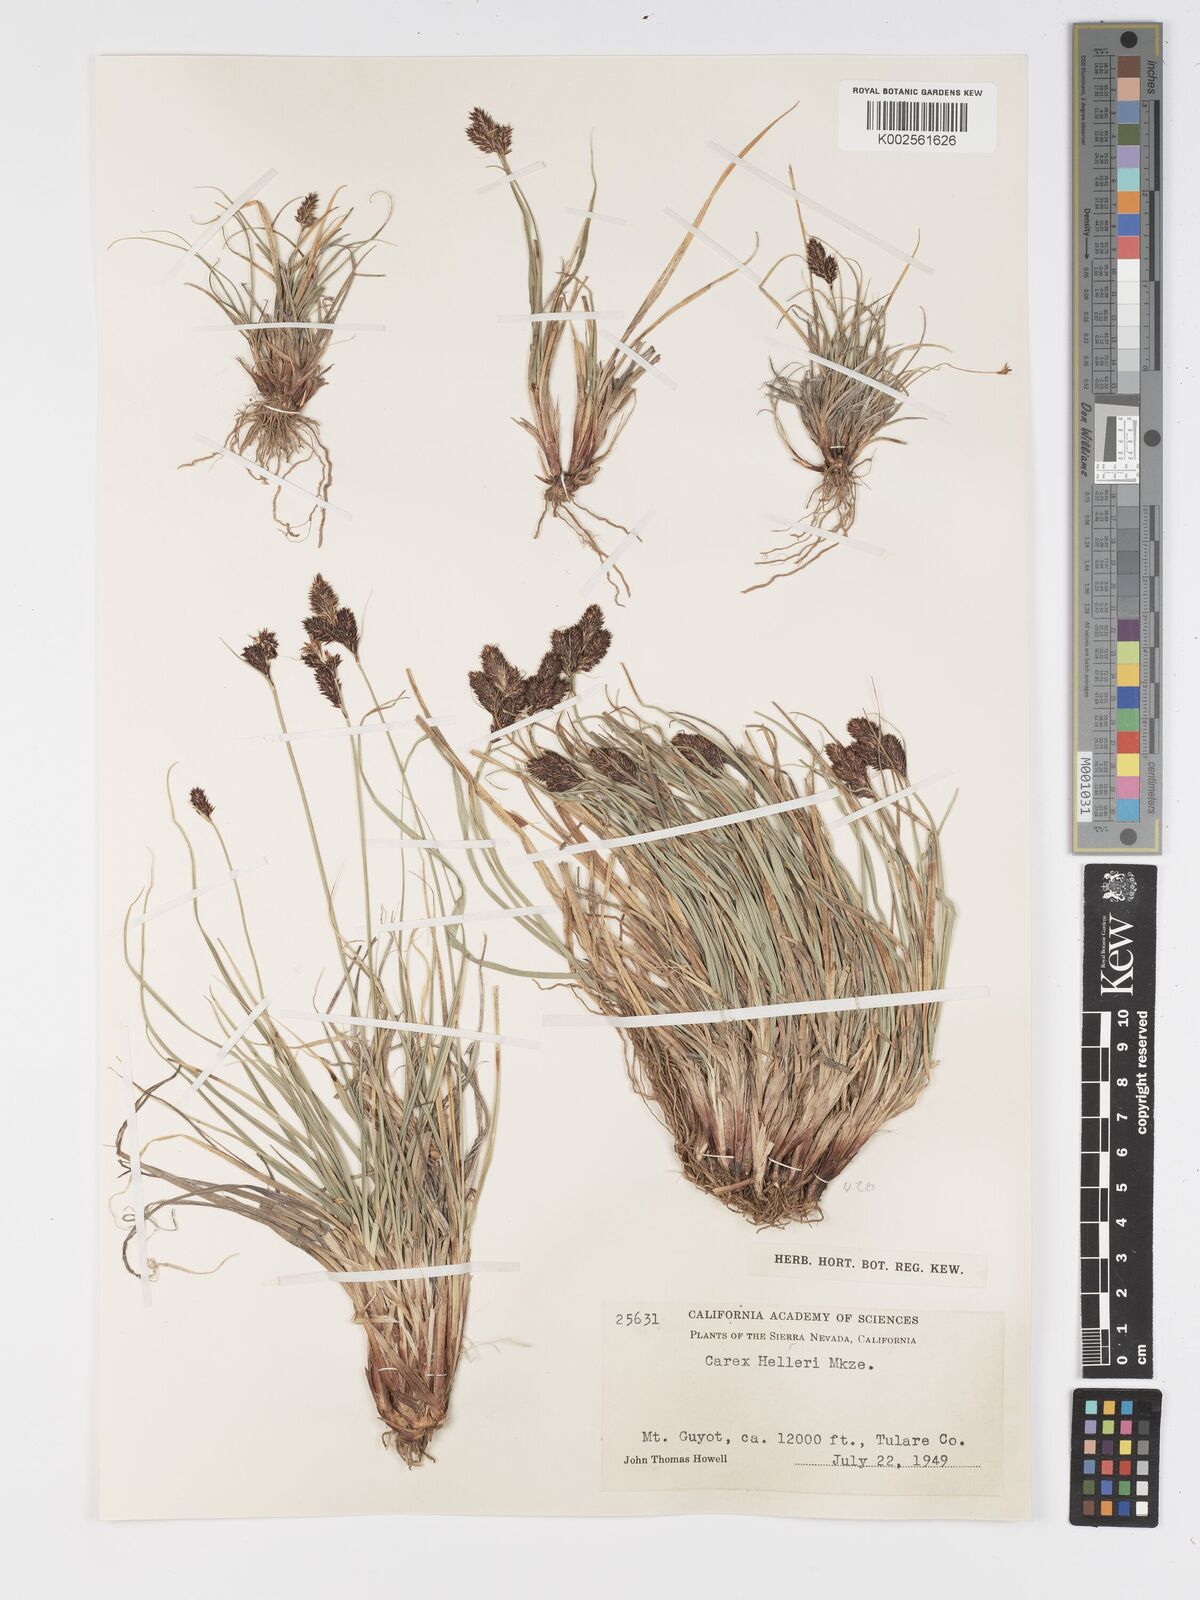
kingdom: Plantae
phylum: Tracheophyta
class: Liliopsida
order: Poales
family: Cyperaceae
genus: Carex
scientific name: Carex helleri
